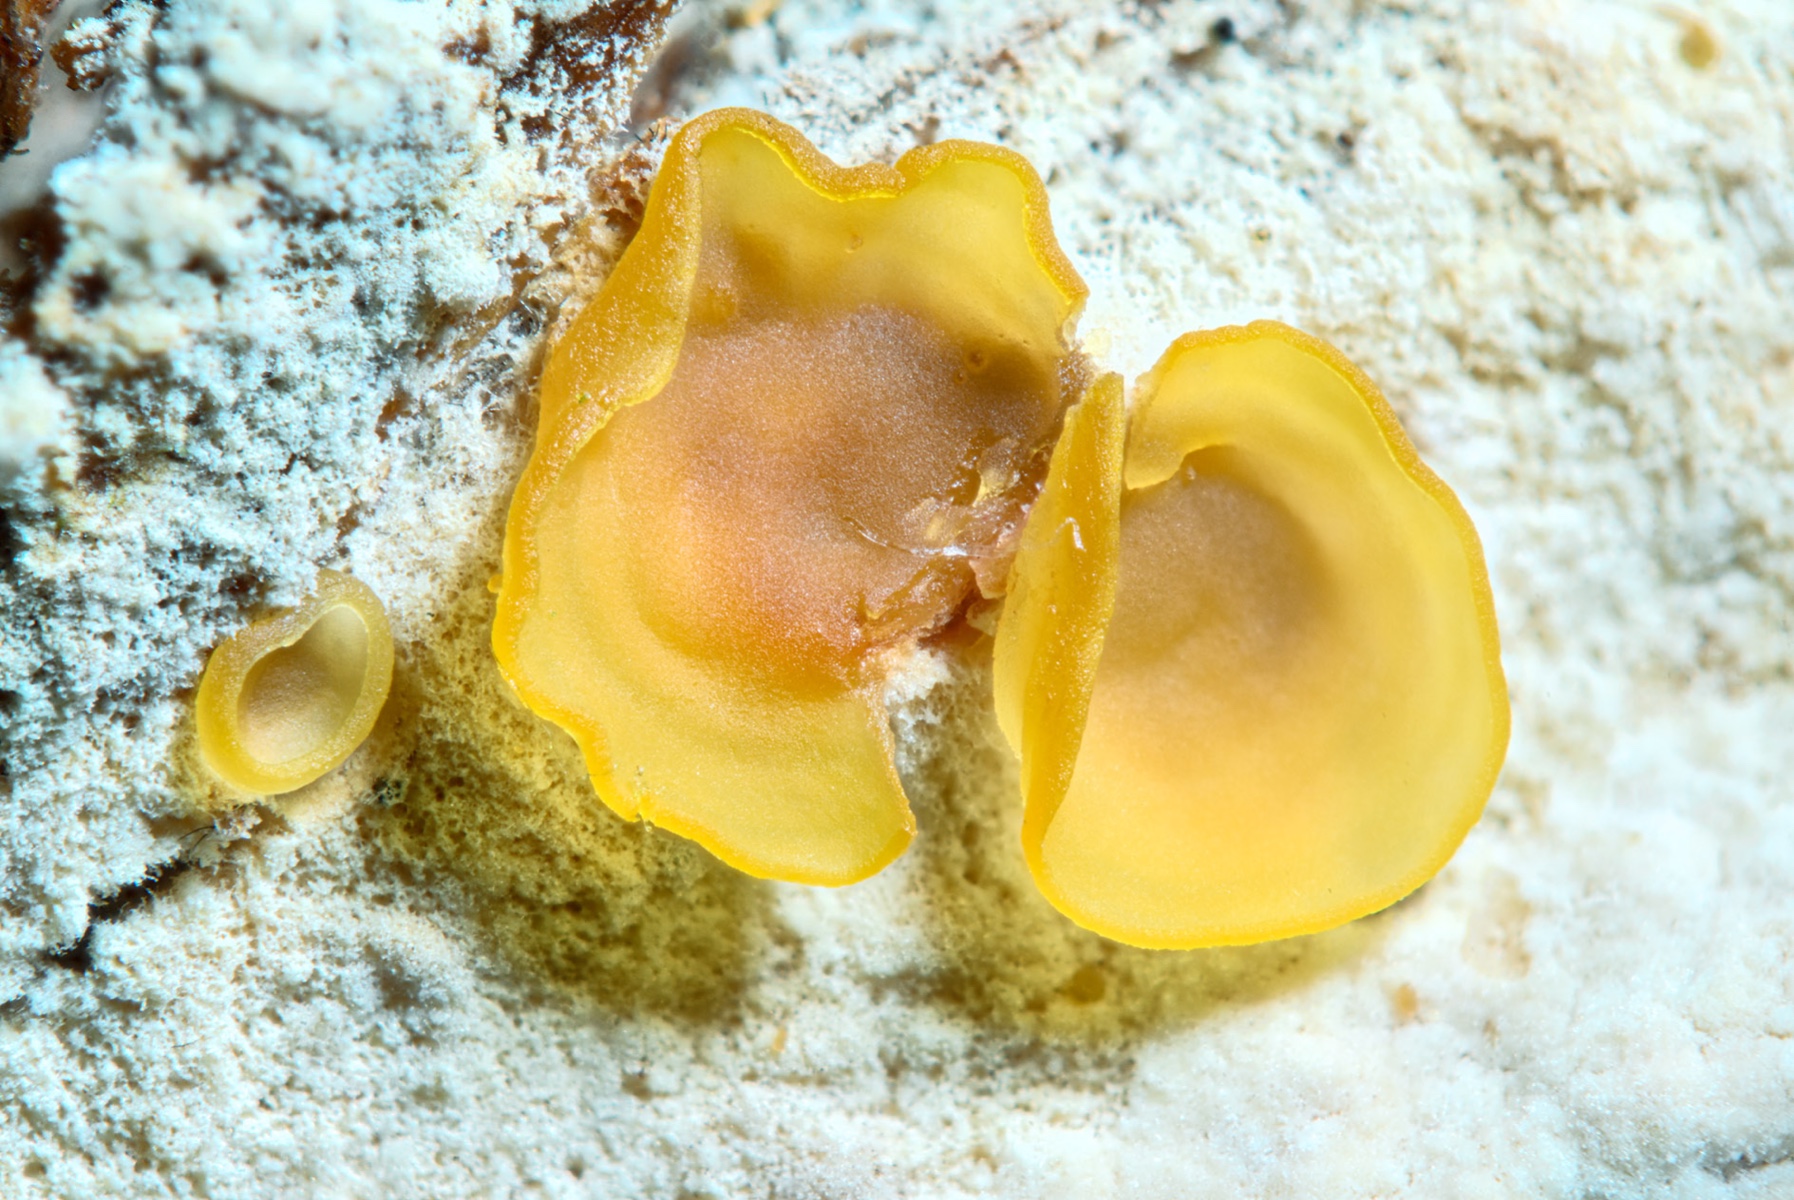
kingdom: Fungi
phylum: Ascomycota
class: Orbiliomycetes
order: Orbiliales
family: Orbiliaceae
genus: Orbilia
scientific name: Orbilia xanthostigma
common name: krumsporet voksskive
